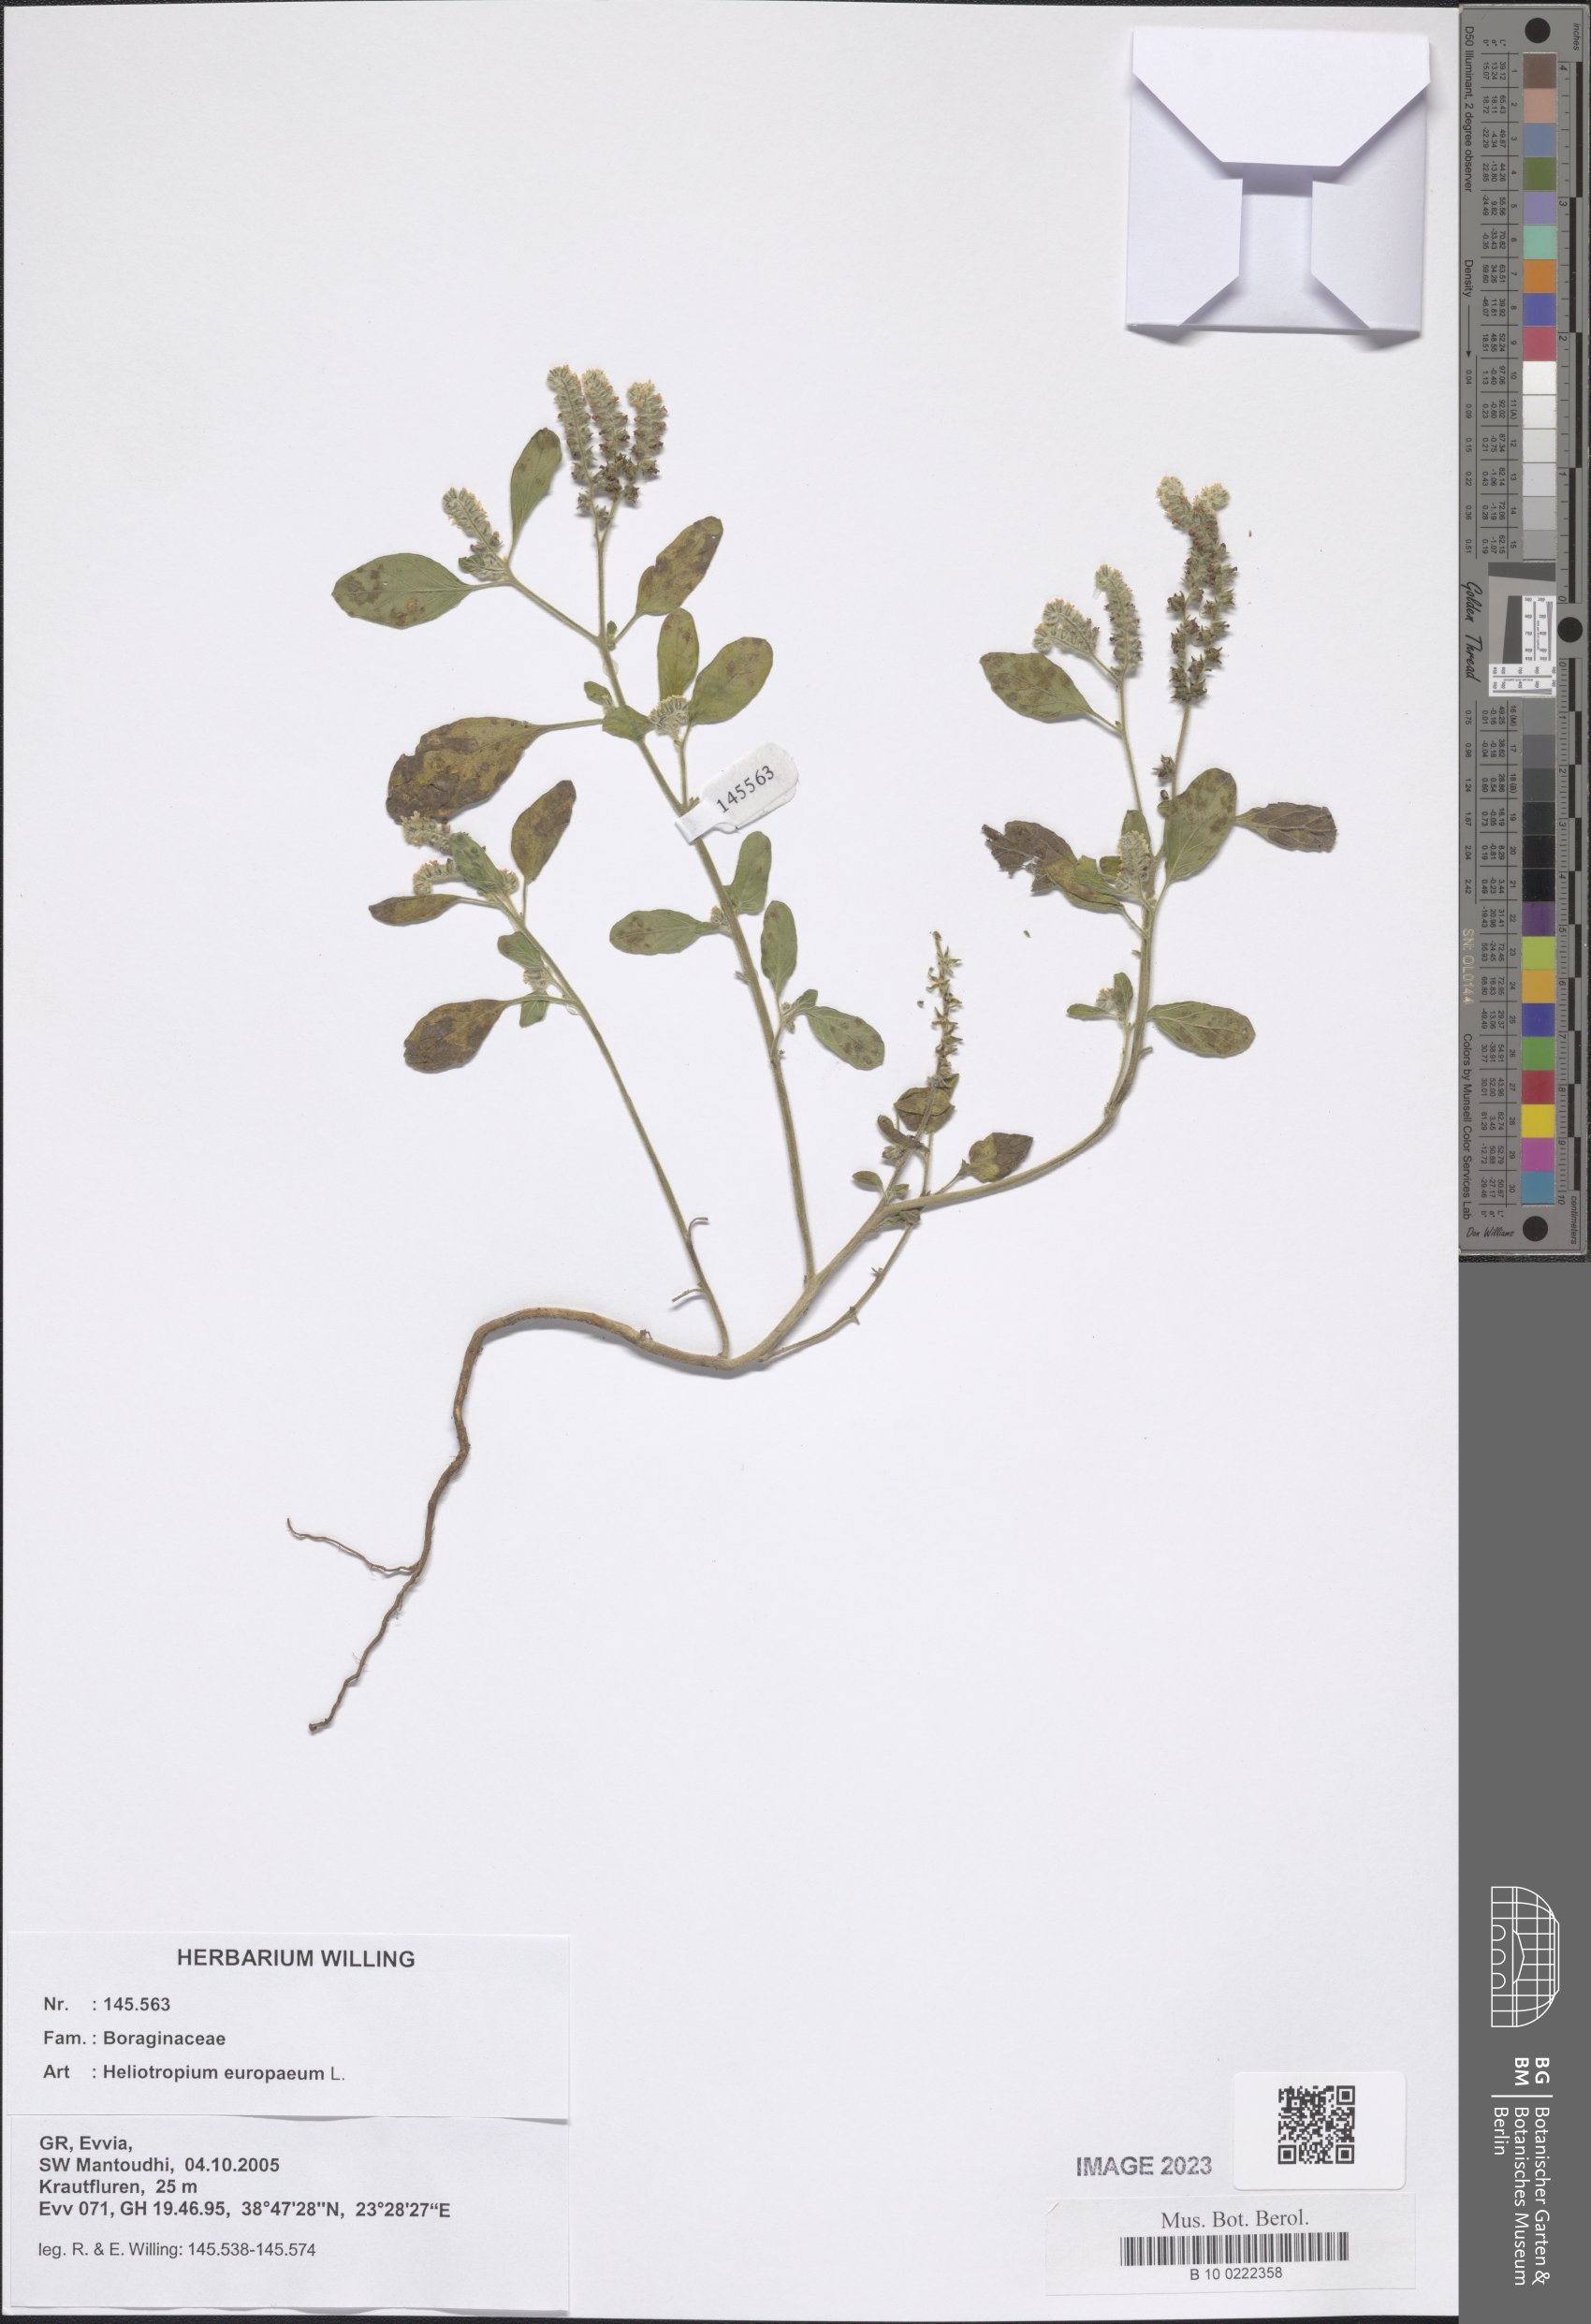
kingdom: Plantae
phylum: Tracheophyta
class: Magnoliopsida
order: Boraginales
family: Heliotropiaceae
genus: Heliotropium
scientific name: Heliotropium europaeum
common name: European heliotrope
